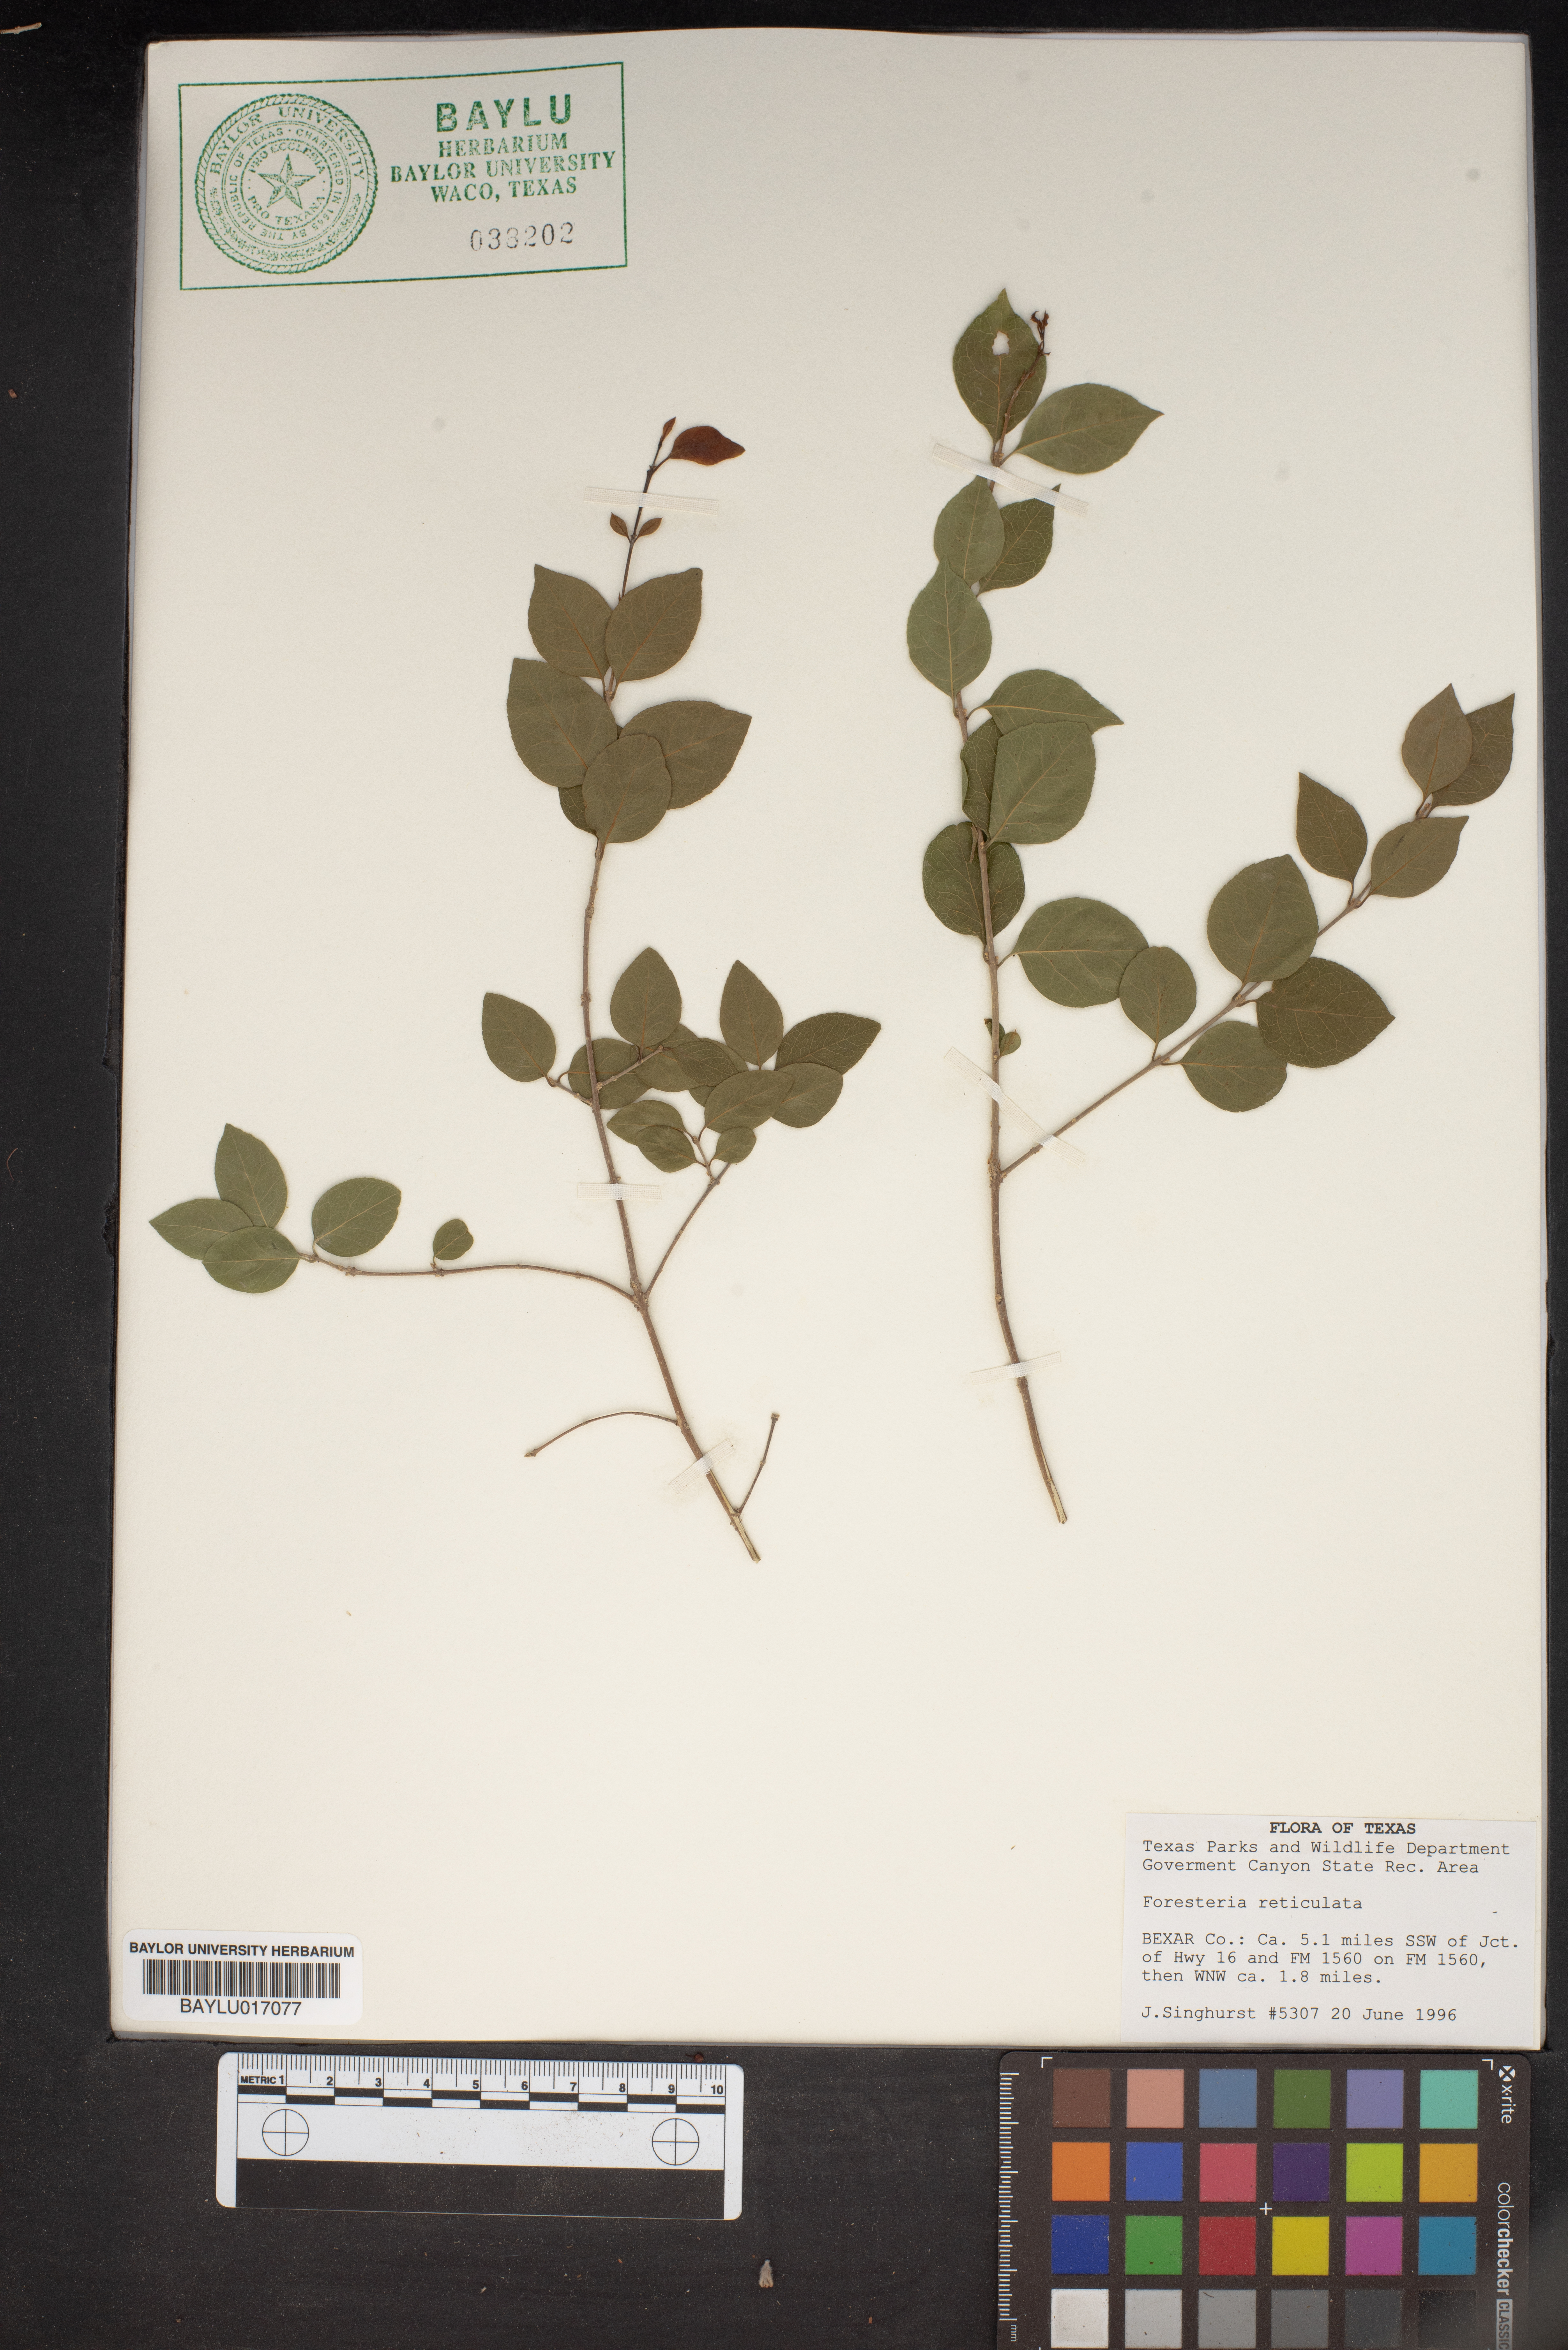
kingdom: Plantae
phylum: Tracheophyta
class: Magnoliopsida
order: Lamiales
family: Oleaceae
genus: Forestiera
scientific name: Forestiera reticulata
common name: Netleaf swamp-privet
